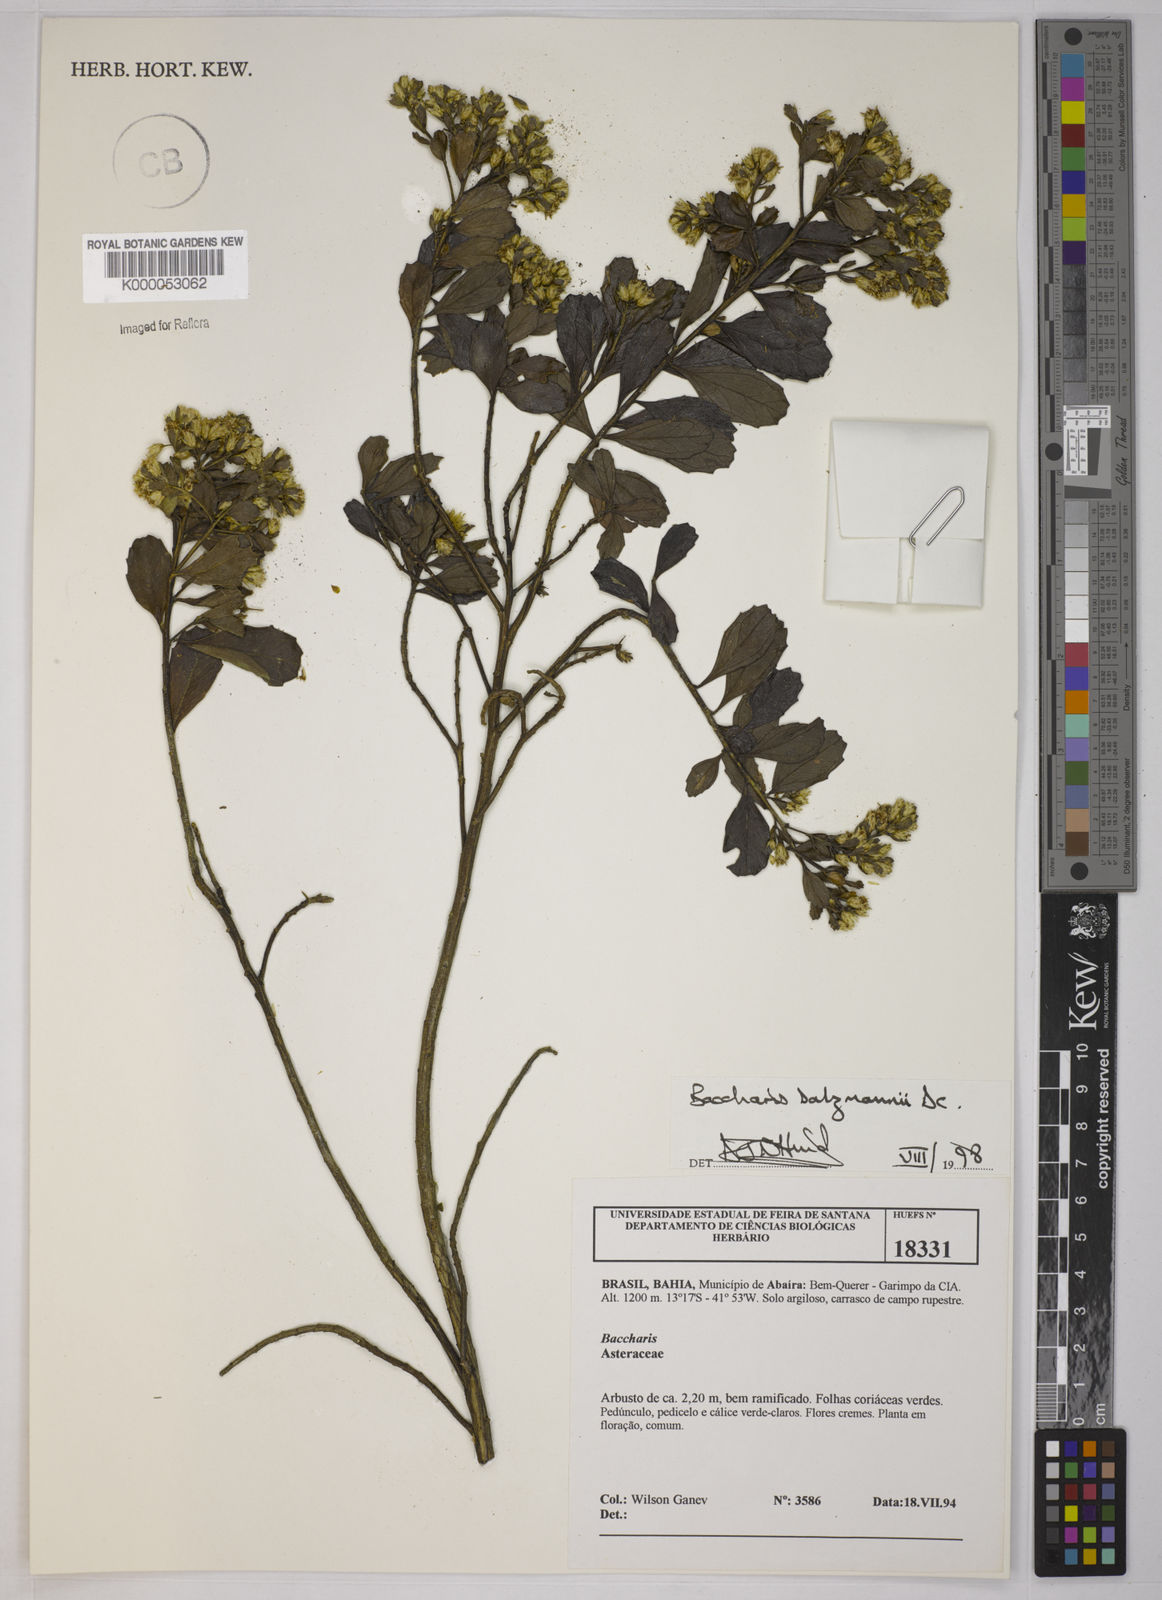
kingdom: Plantae
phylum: Tracheophyta
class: Magnoliopsida
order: Asterales
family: Asteraceae
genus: Baccharis
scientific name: Baccharis retusa
